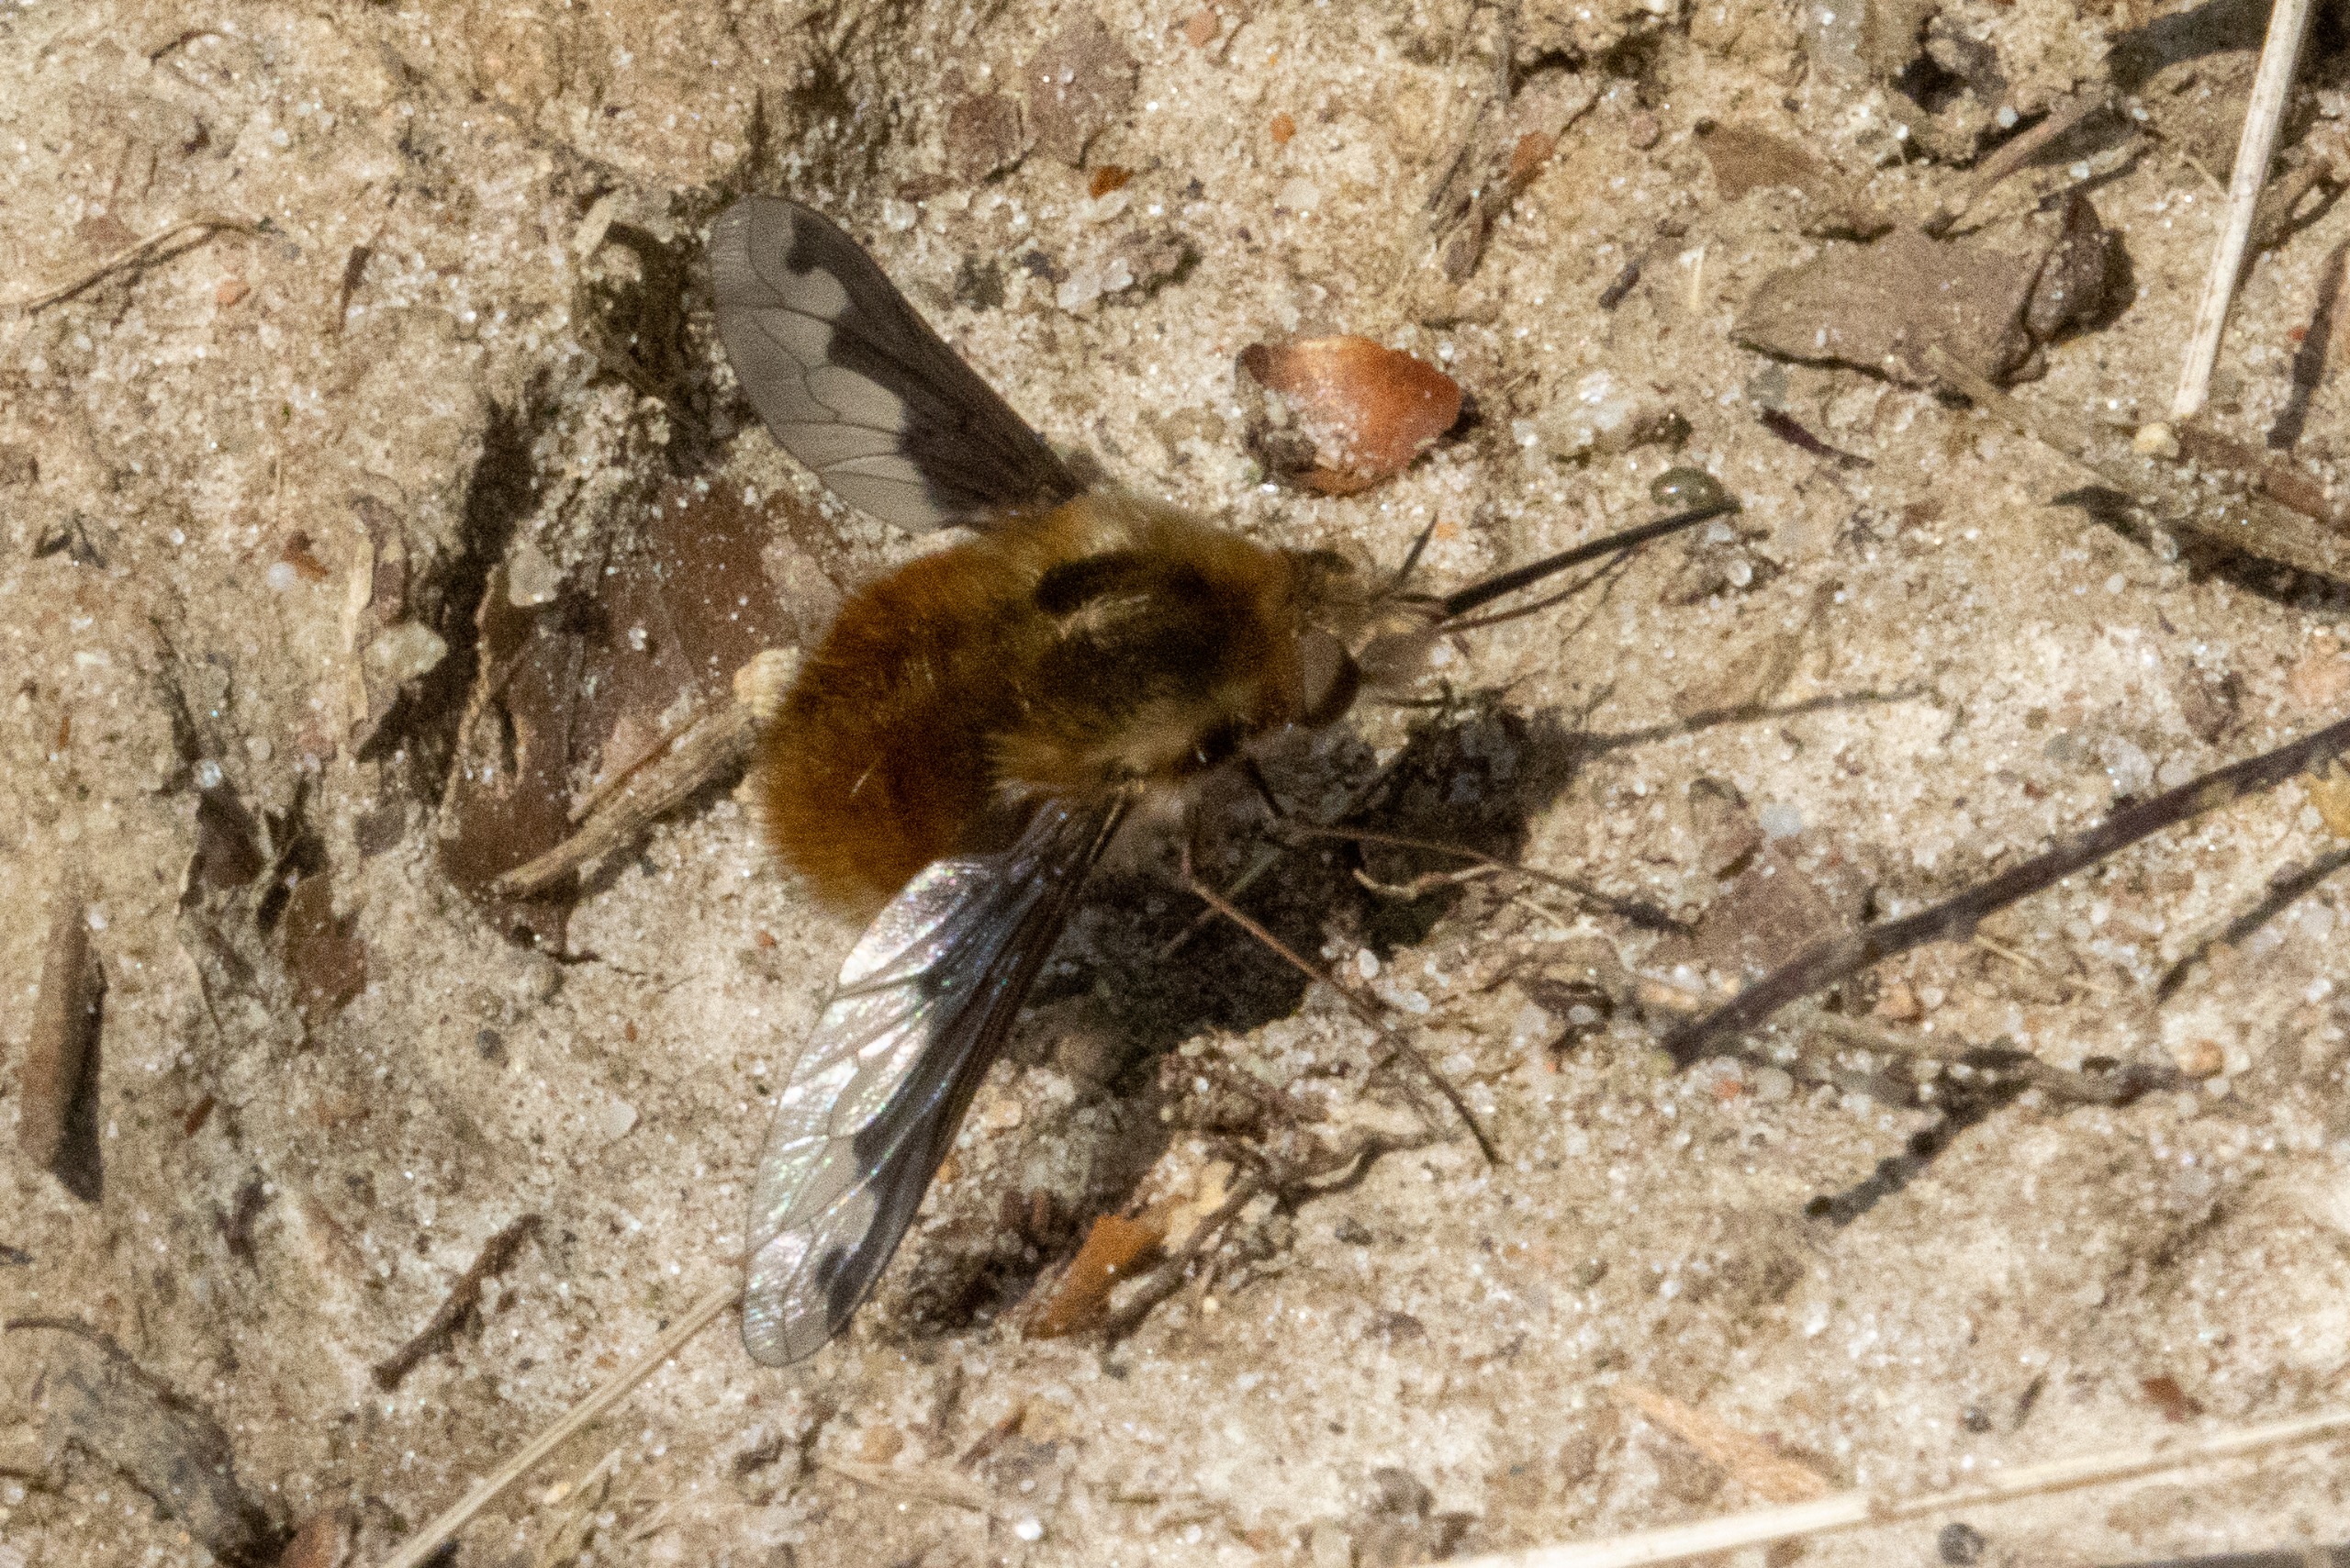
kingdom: Animalia
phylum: Arthropoda
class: Insecta
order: Diptera
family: Bombyliidae
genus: Bombylius
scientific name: Bombylius major
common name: Stor humleflue
